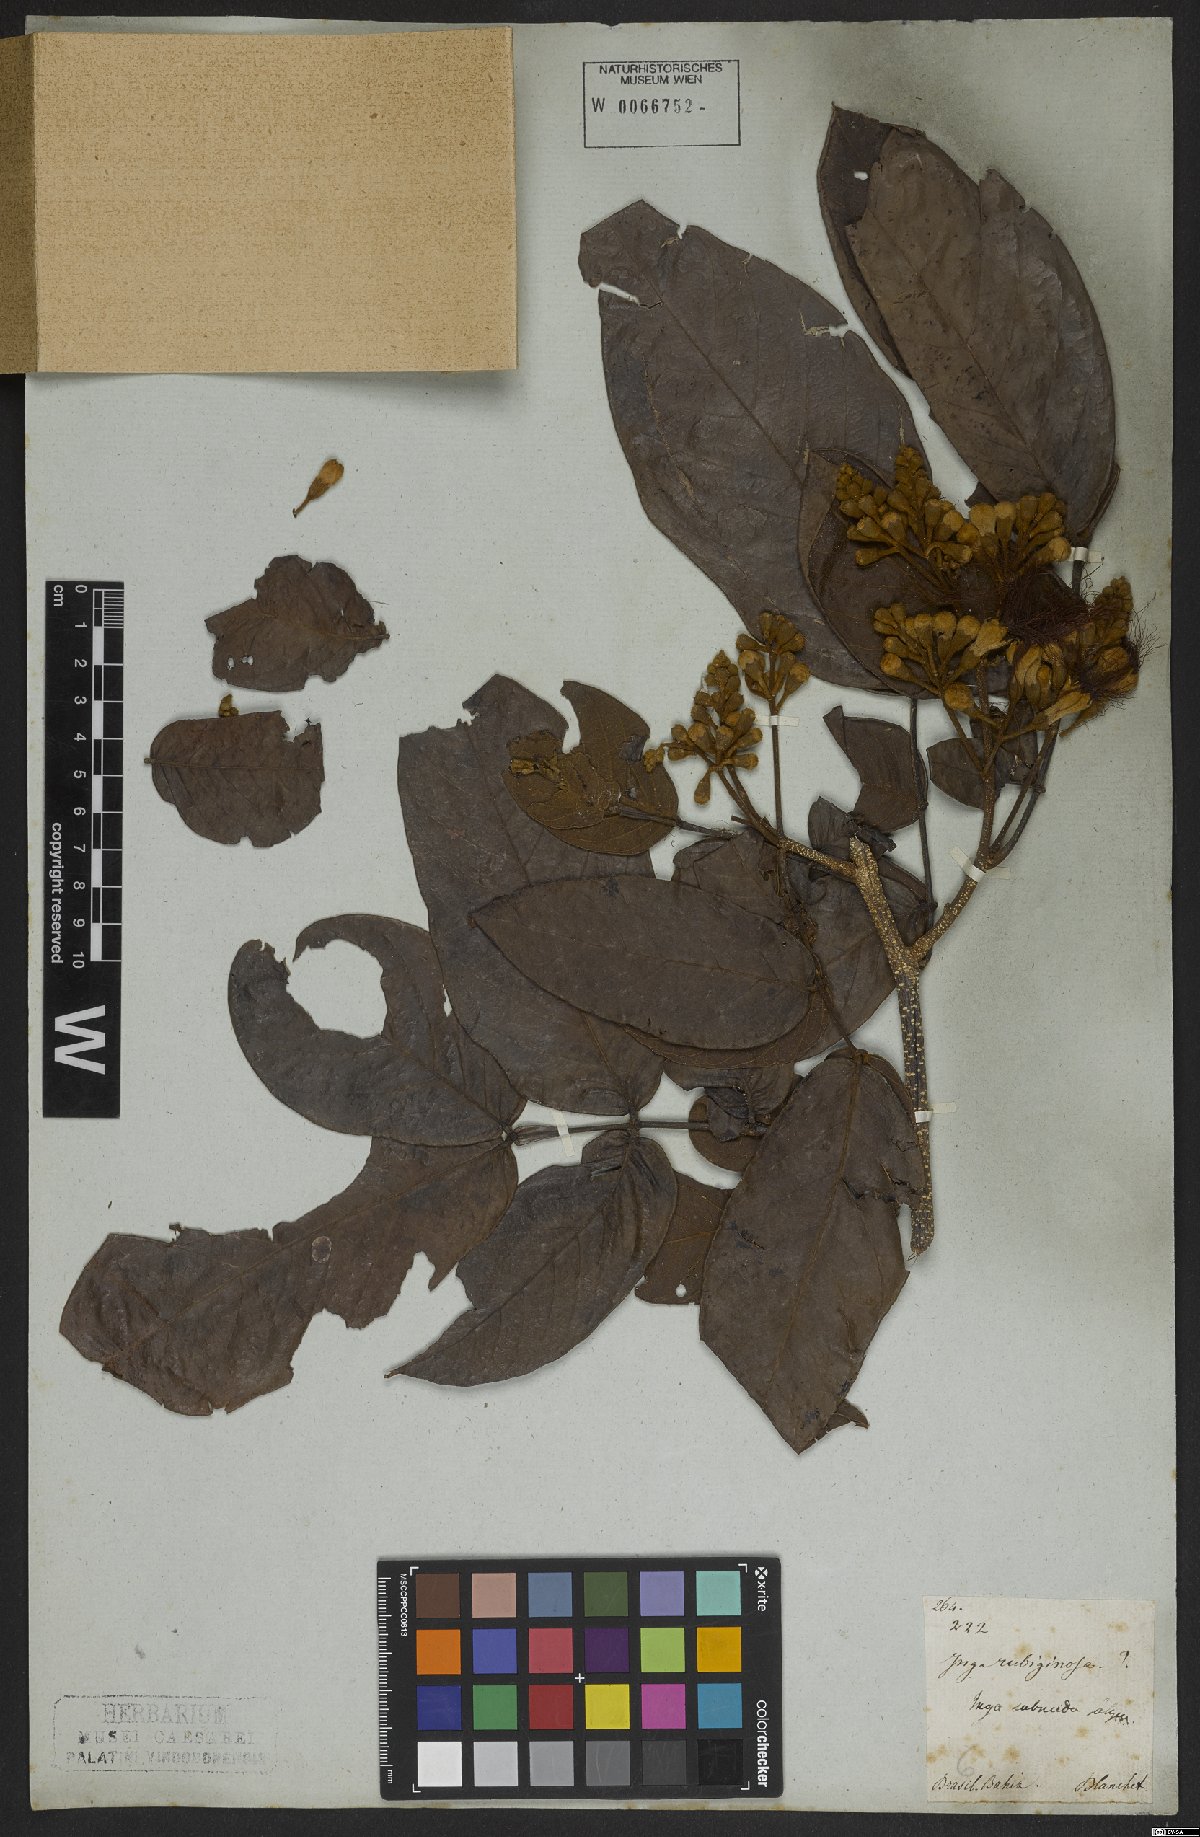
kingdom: Plantae
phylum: Tracheophyta
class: Magnoliopsida
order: Fabales
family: Fabaceae
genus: Inga
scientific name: Inga subnuda
